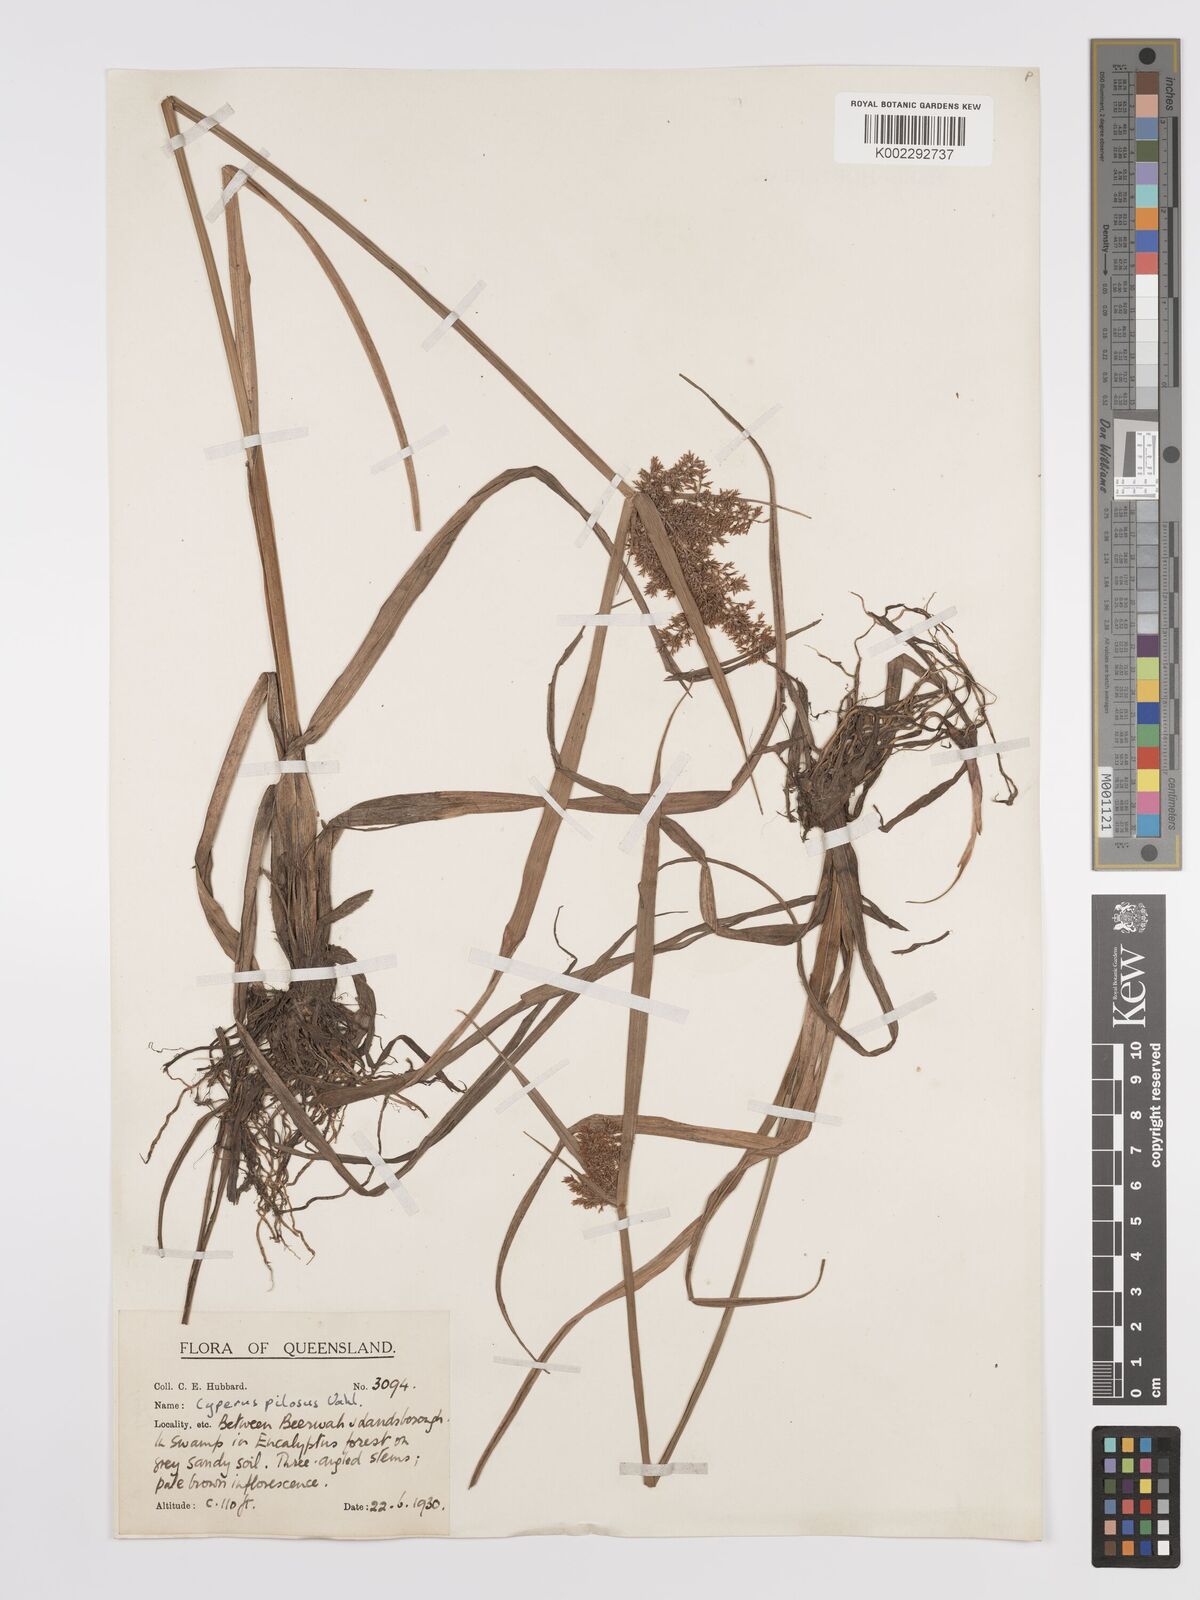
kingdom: Plantae
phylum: Tracheophyta
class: Liliopsida
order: Poales
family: Cyperaceae
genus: Cyperus
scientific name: Cyperus pilosus
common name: Fuzzy flatsedge
